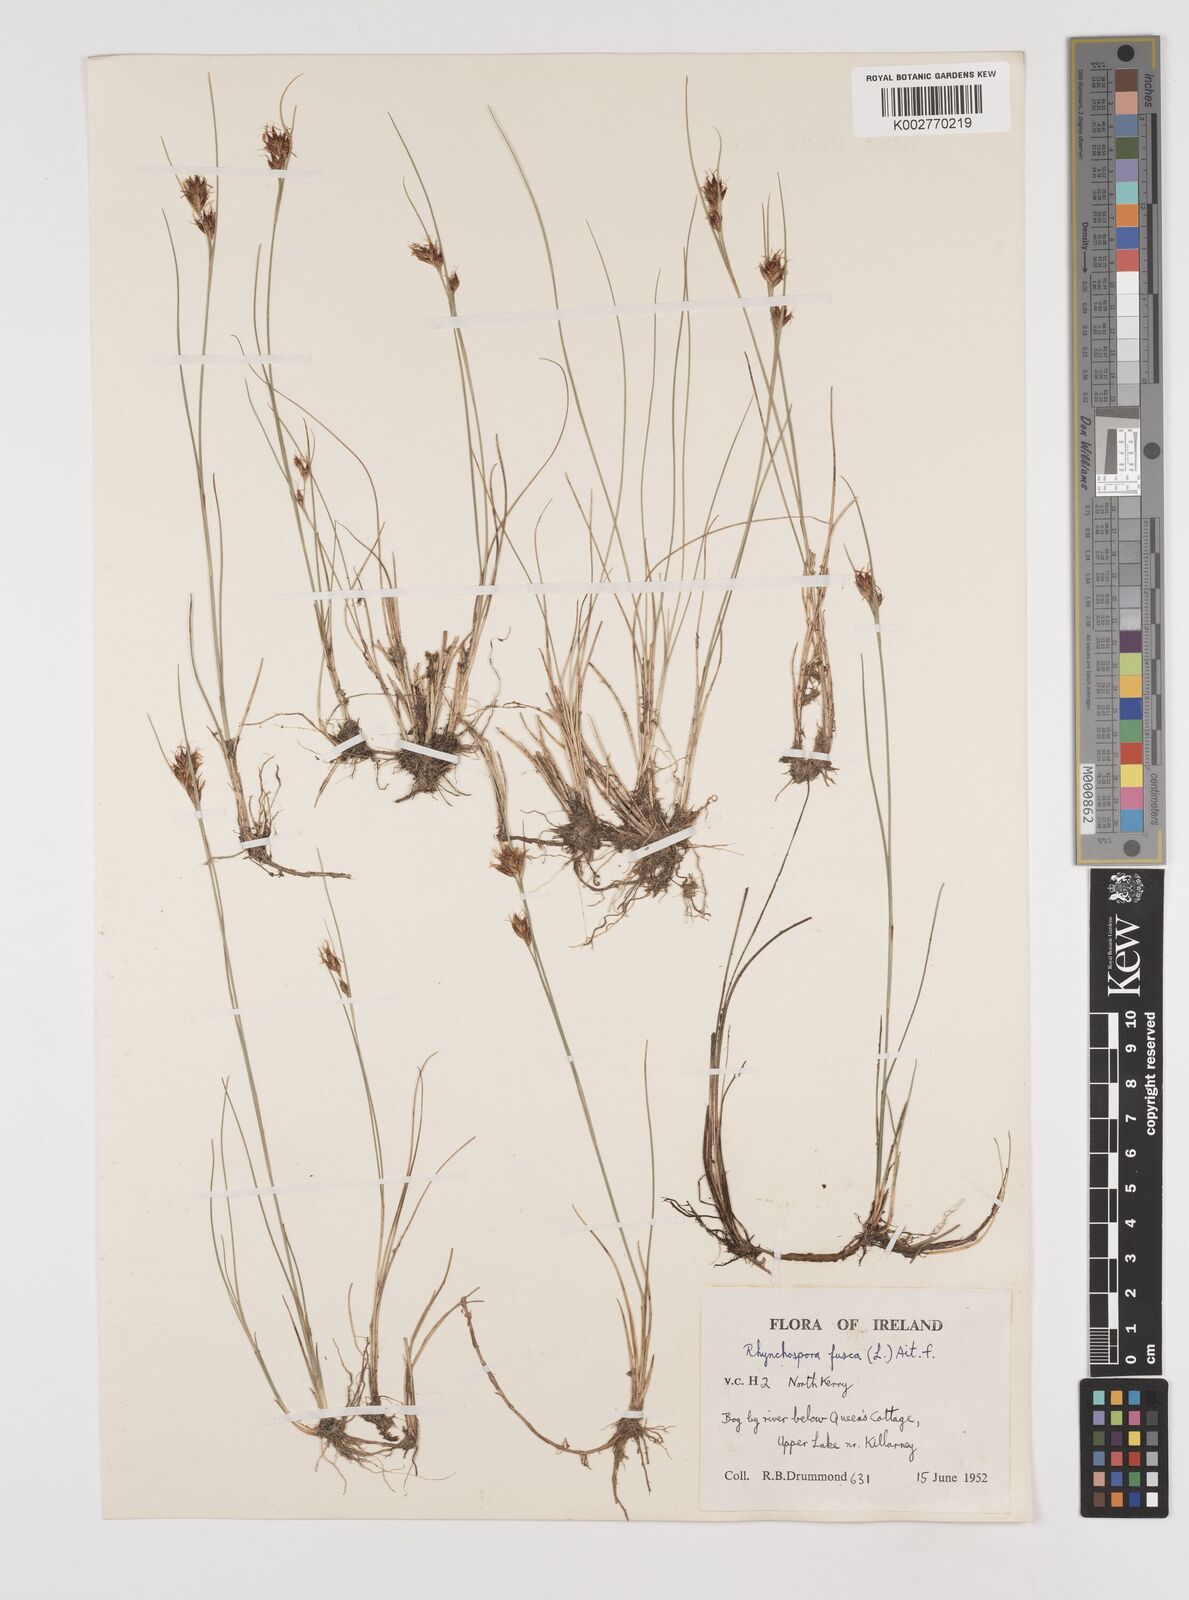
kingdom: Plantae
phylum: Tracheophyta
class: Liliopsida
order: Poales
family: Cyperaceae
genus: Rhynchospora
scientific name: Rhynchospora fusca
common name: Brown beak-sedge
